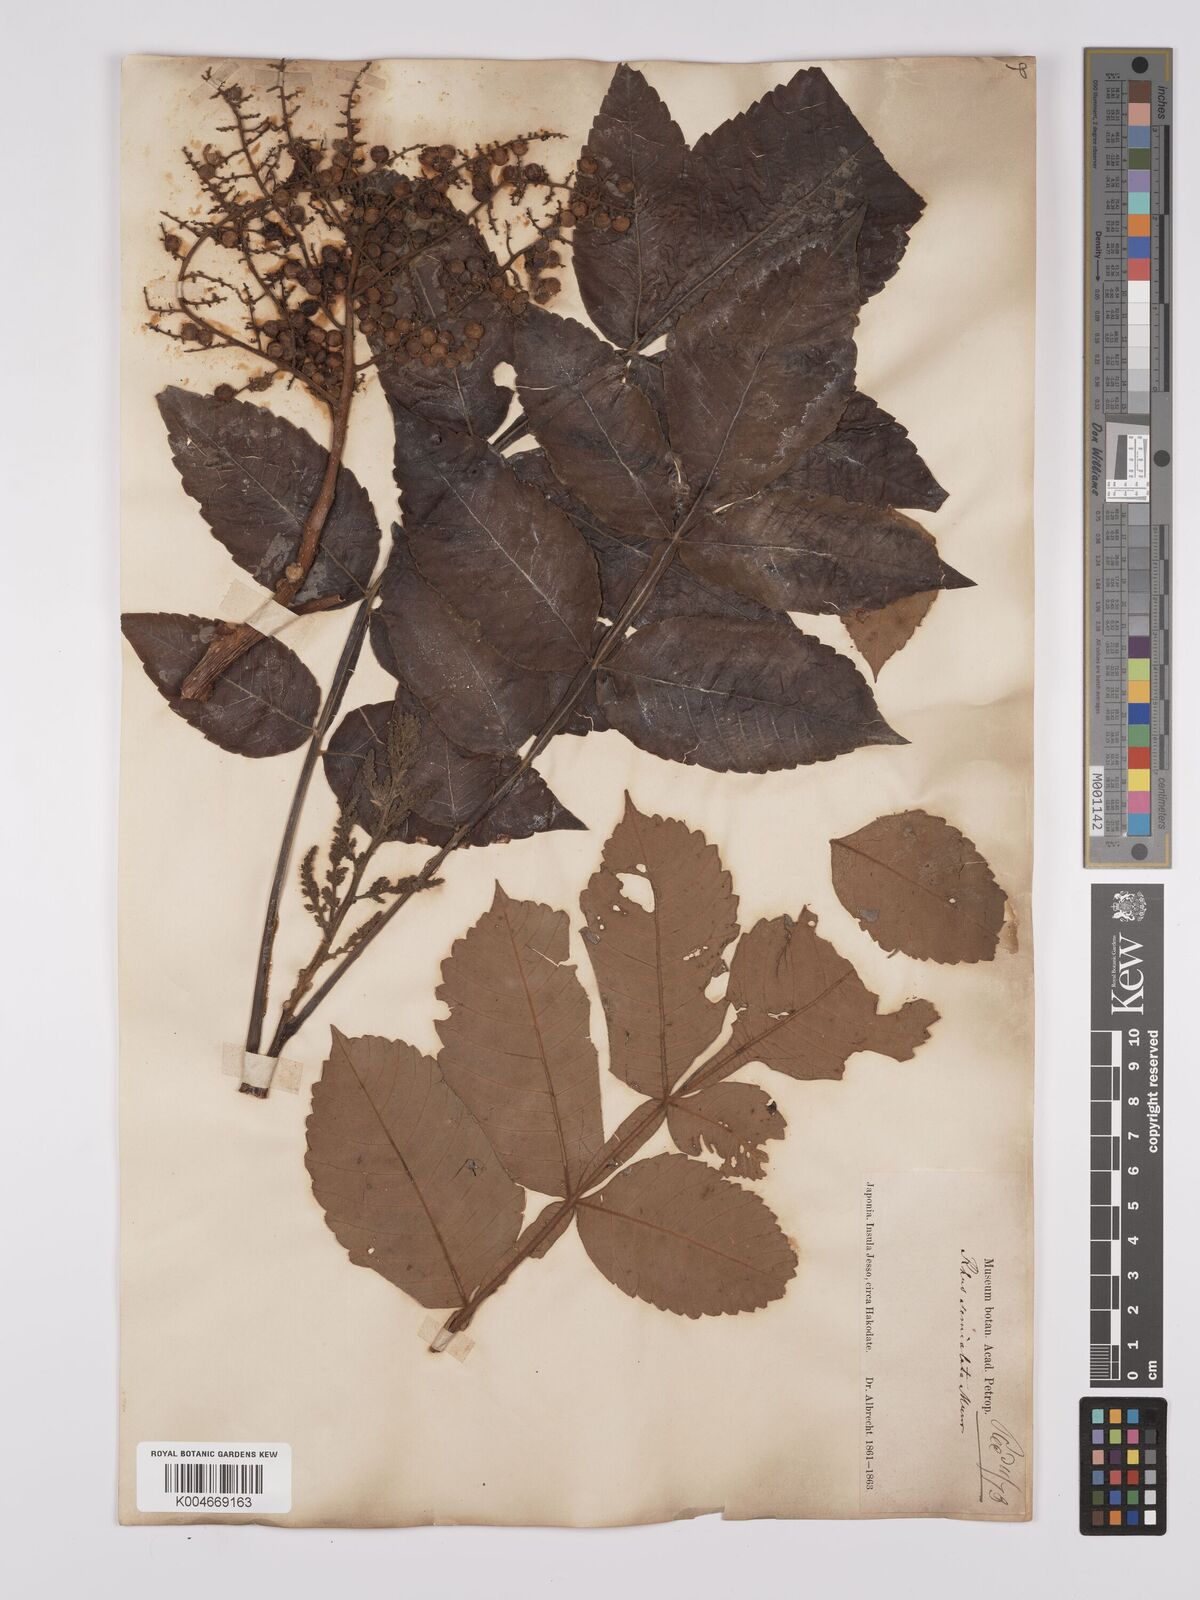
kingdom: Plantae
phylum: Tracheophyta
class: Magnoliopsida
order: Sapindales
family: Anacardiaceae
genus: Rhus
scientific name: Rhus chinensis
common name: Chinese gall
